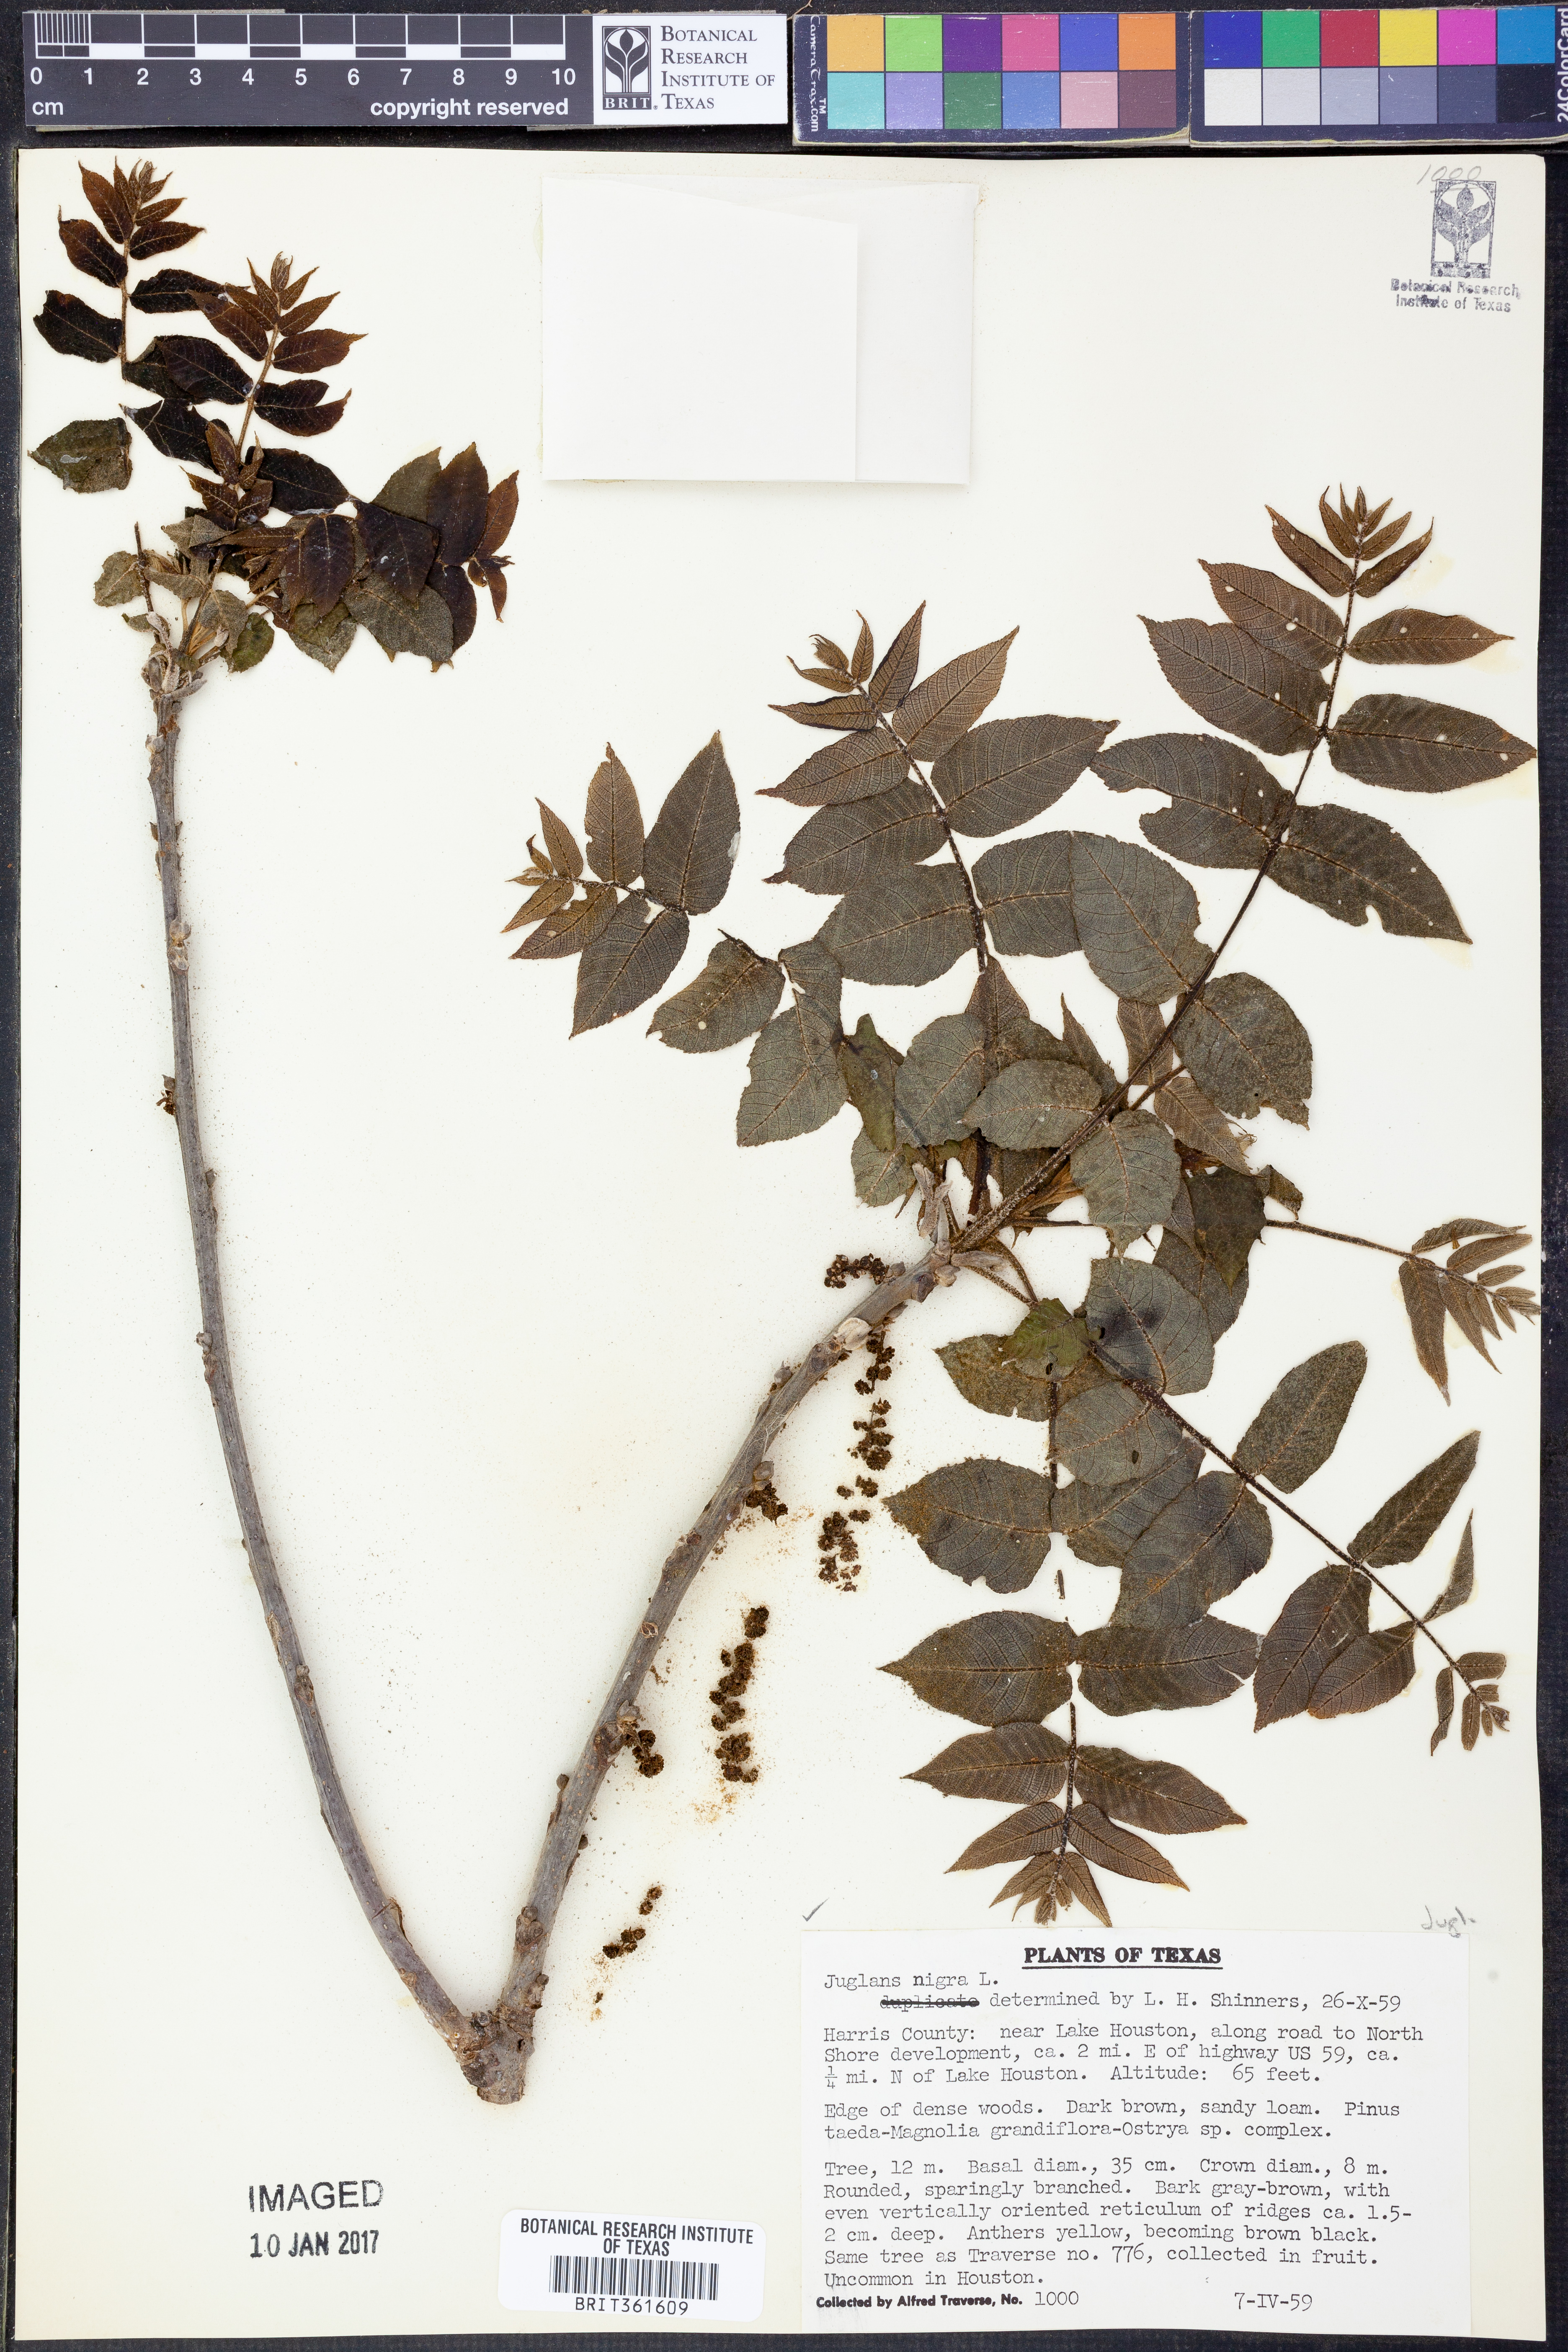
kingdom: Plantae
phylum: Tracheophyta
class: Magnoliopsida
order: Fagales
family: Juglandaceae
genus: Juglans
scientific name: Juglans nigra
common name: Black walnut
